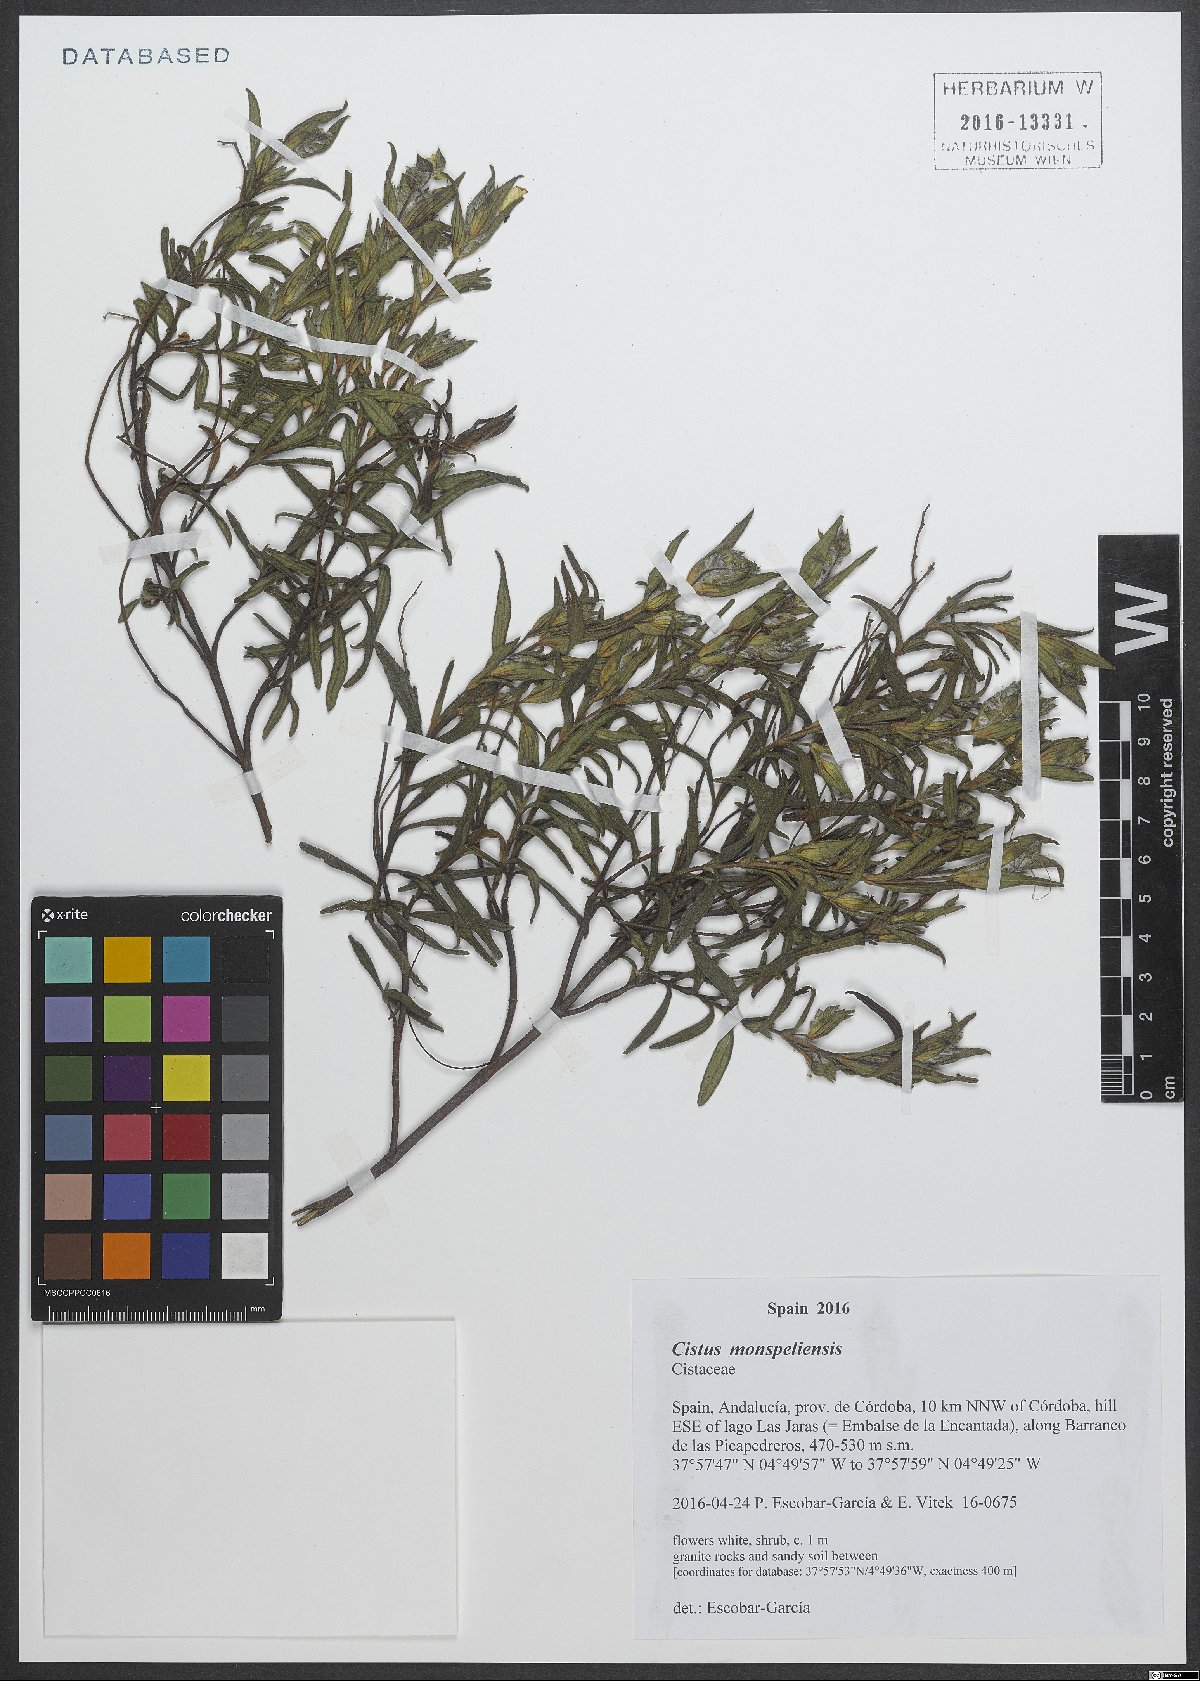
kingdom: Plantae
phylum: Tracheophyta
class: Magnoliopsida
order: Malvales
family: Cistaceae
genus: Cistus
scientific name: Cistus monspeliensis
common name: Montpelier cistus
